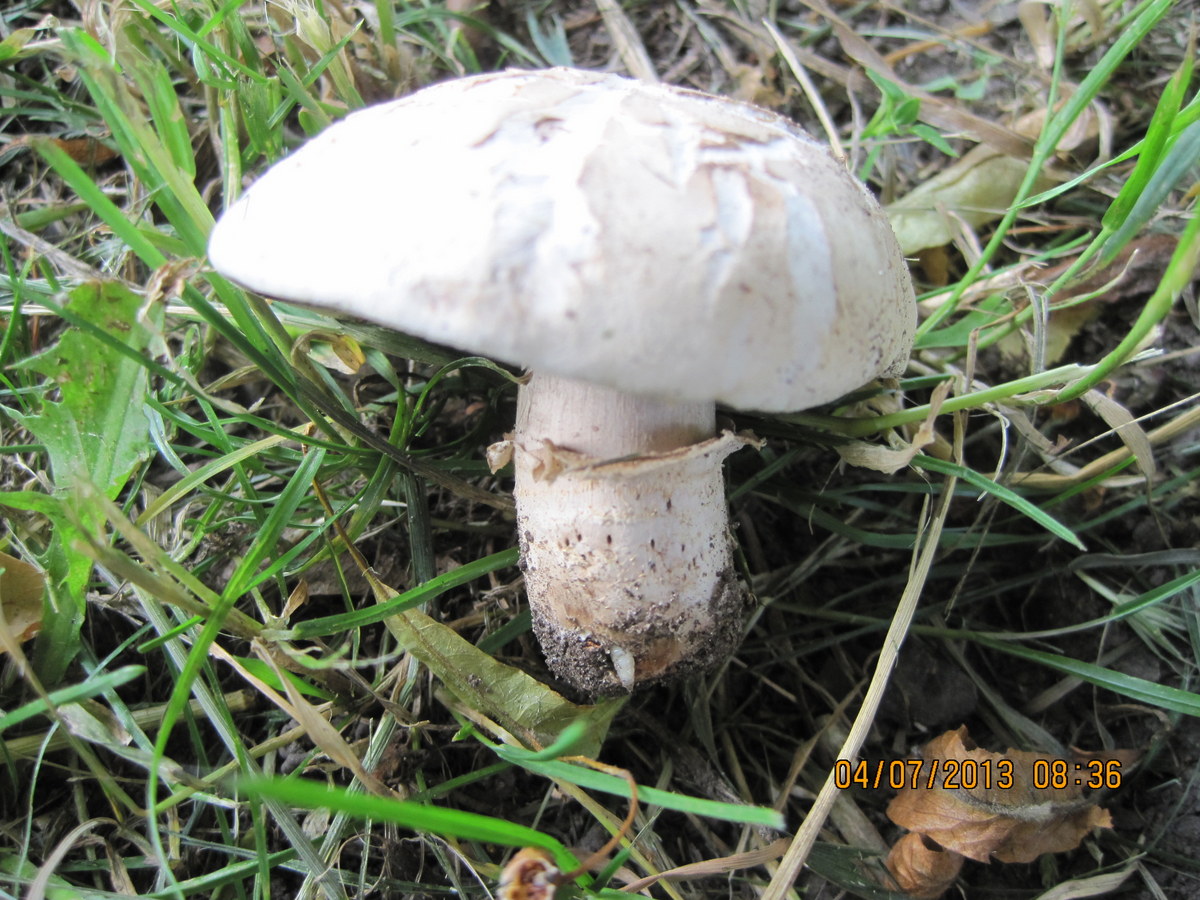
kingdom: Fungi
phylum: Basidiomycota
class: Agaricomycetes
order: Agaricales
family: Agaricaceae
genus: Agaricus
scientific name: Agaricus bernardii
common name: strandengs-champignon
